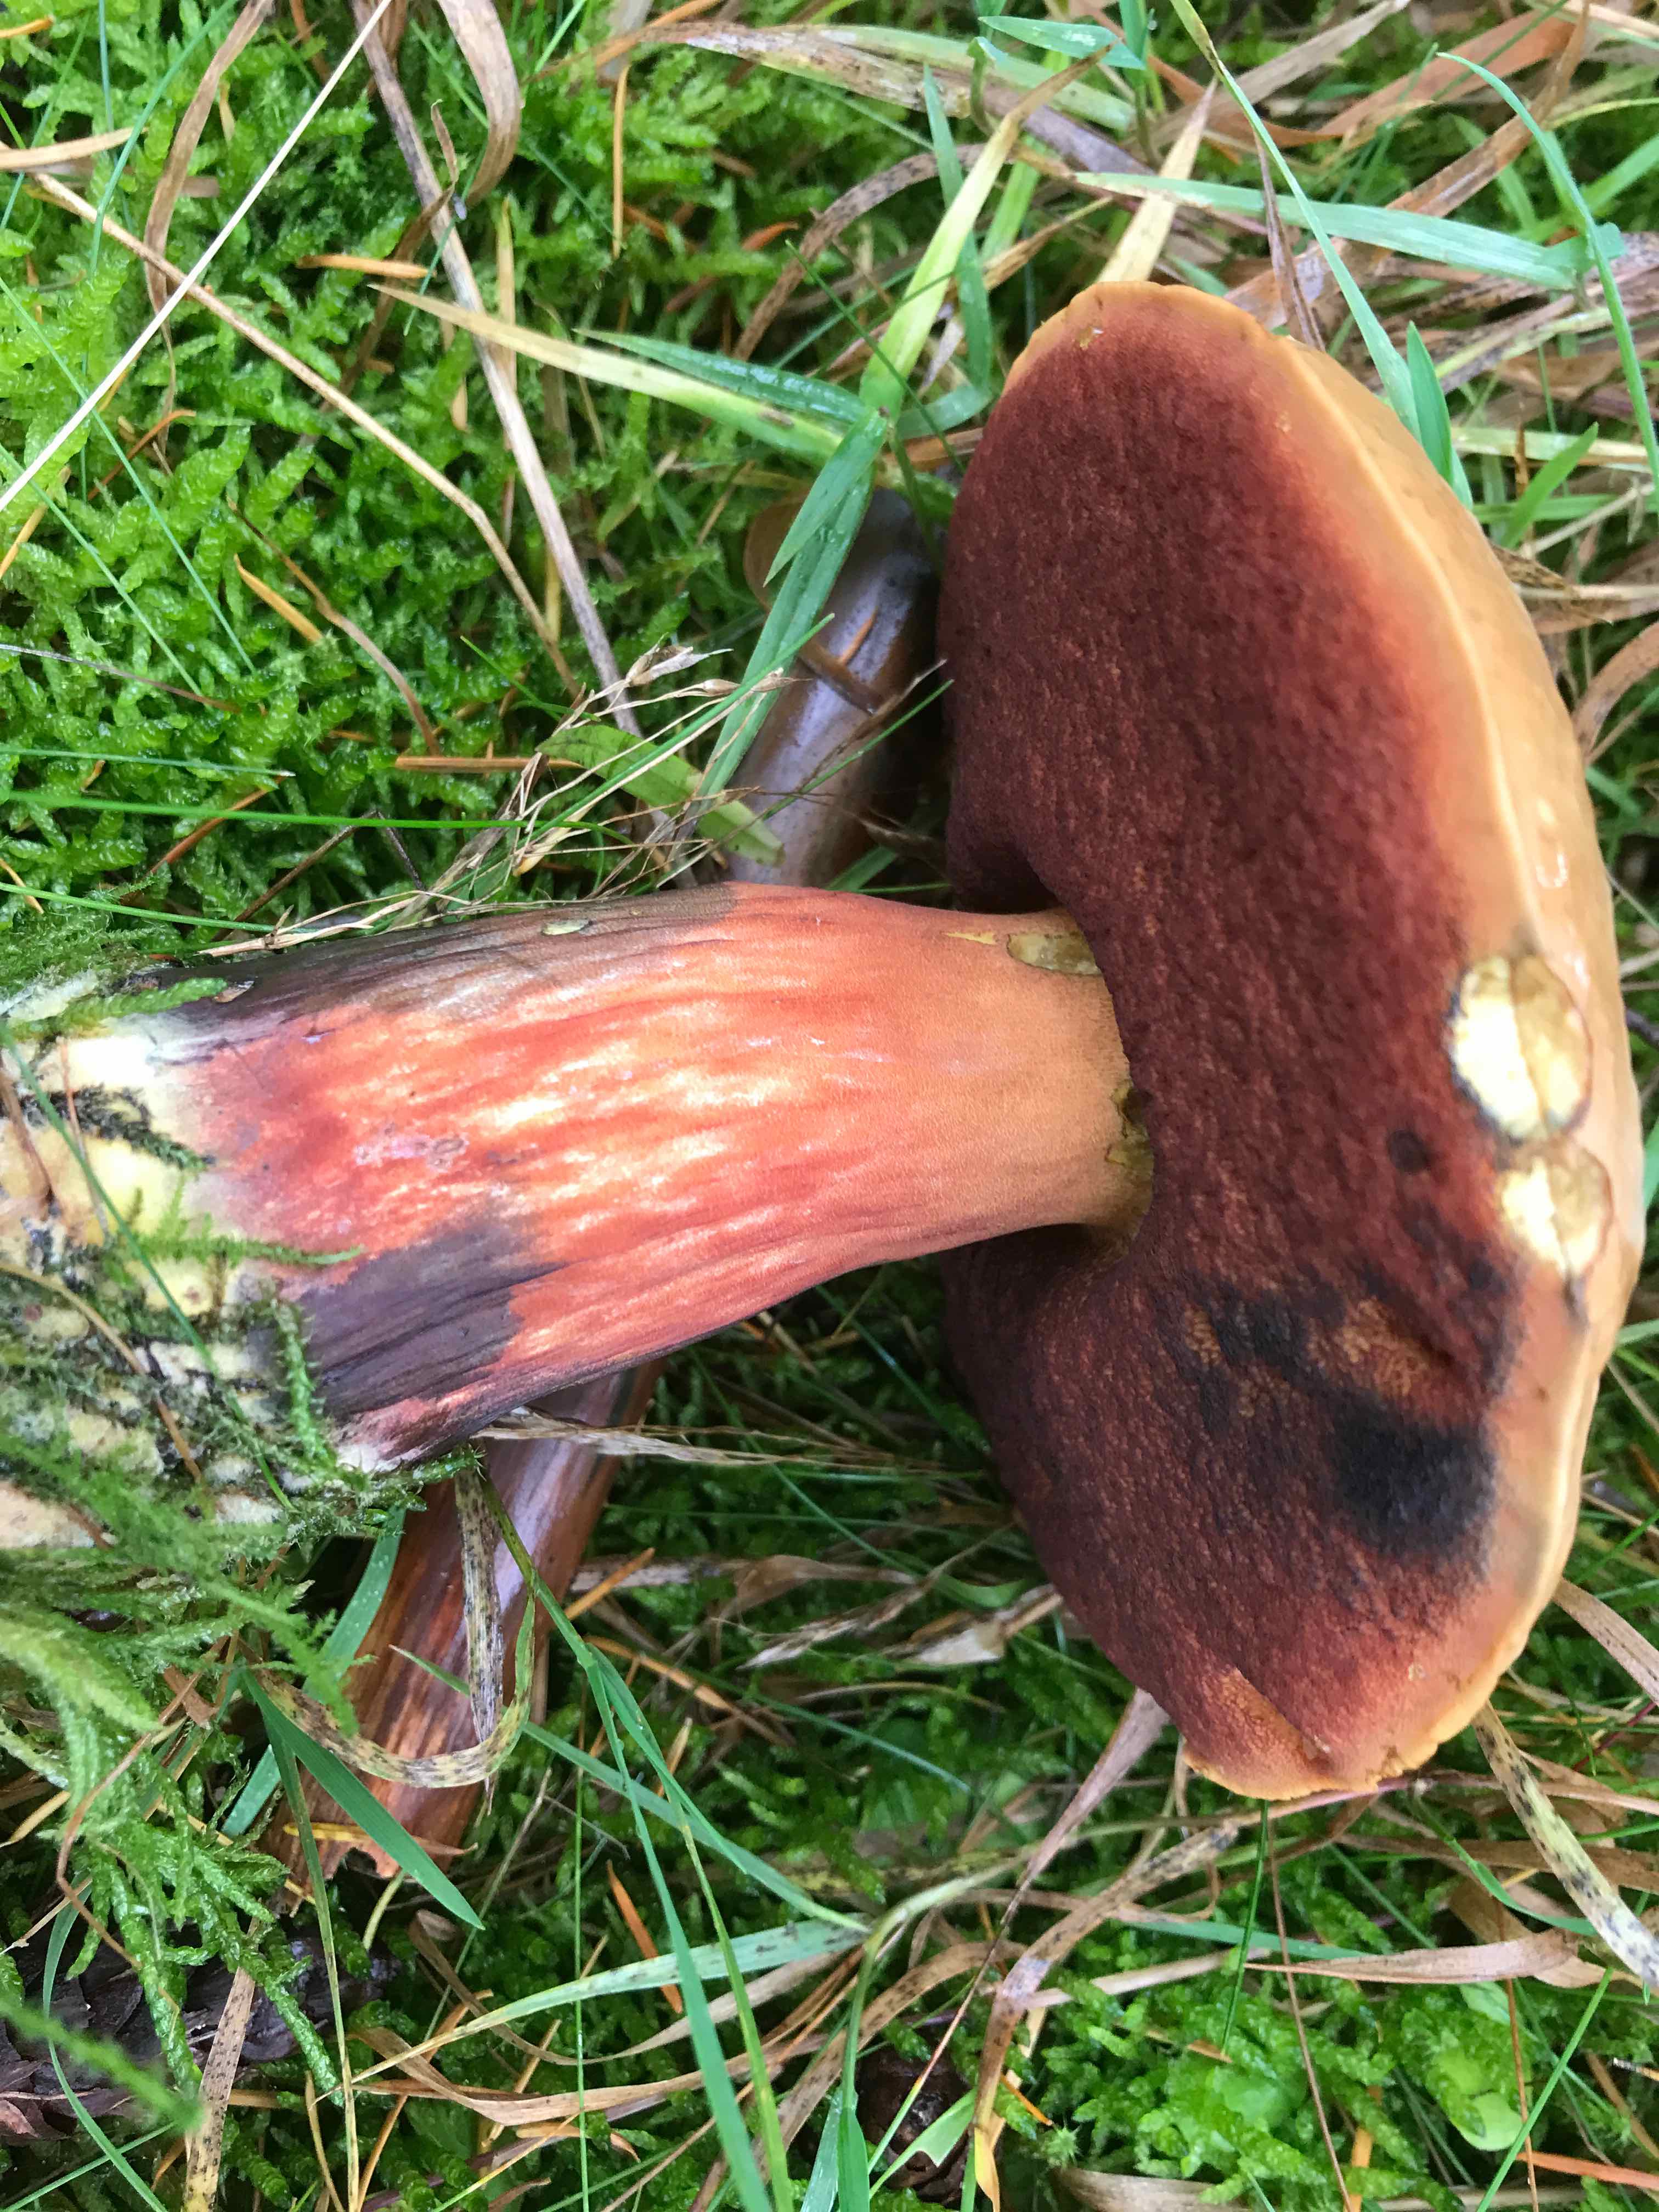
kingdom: Fungi
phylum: Basidiomycota
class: Agaricomycetes
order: Boletales
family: Boletaceae
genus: Neoboletus
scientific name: Neoboletus erythropus
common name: punktstokket indigorørhat
